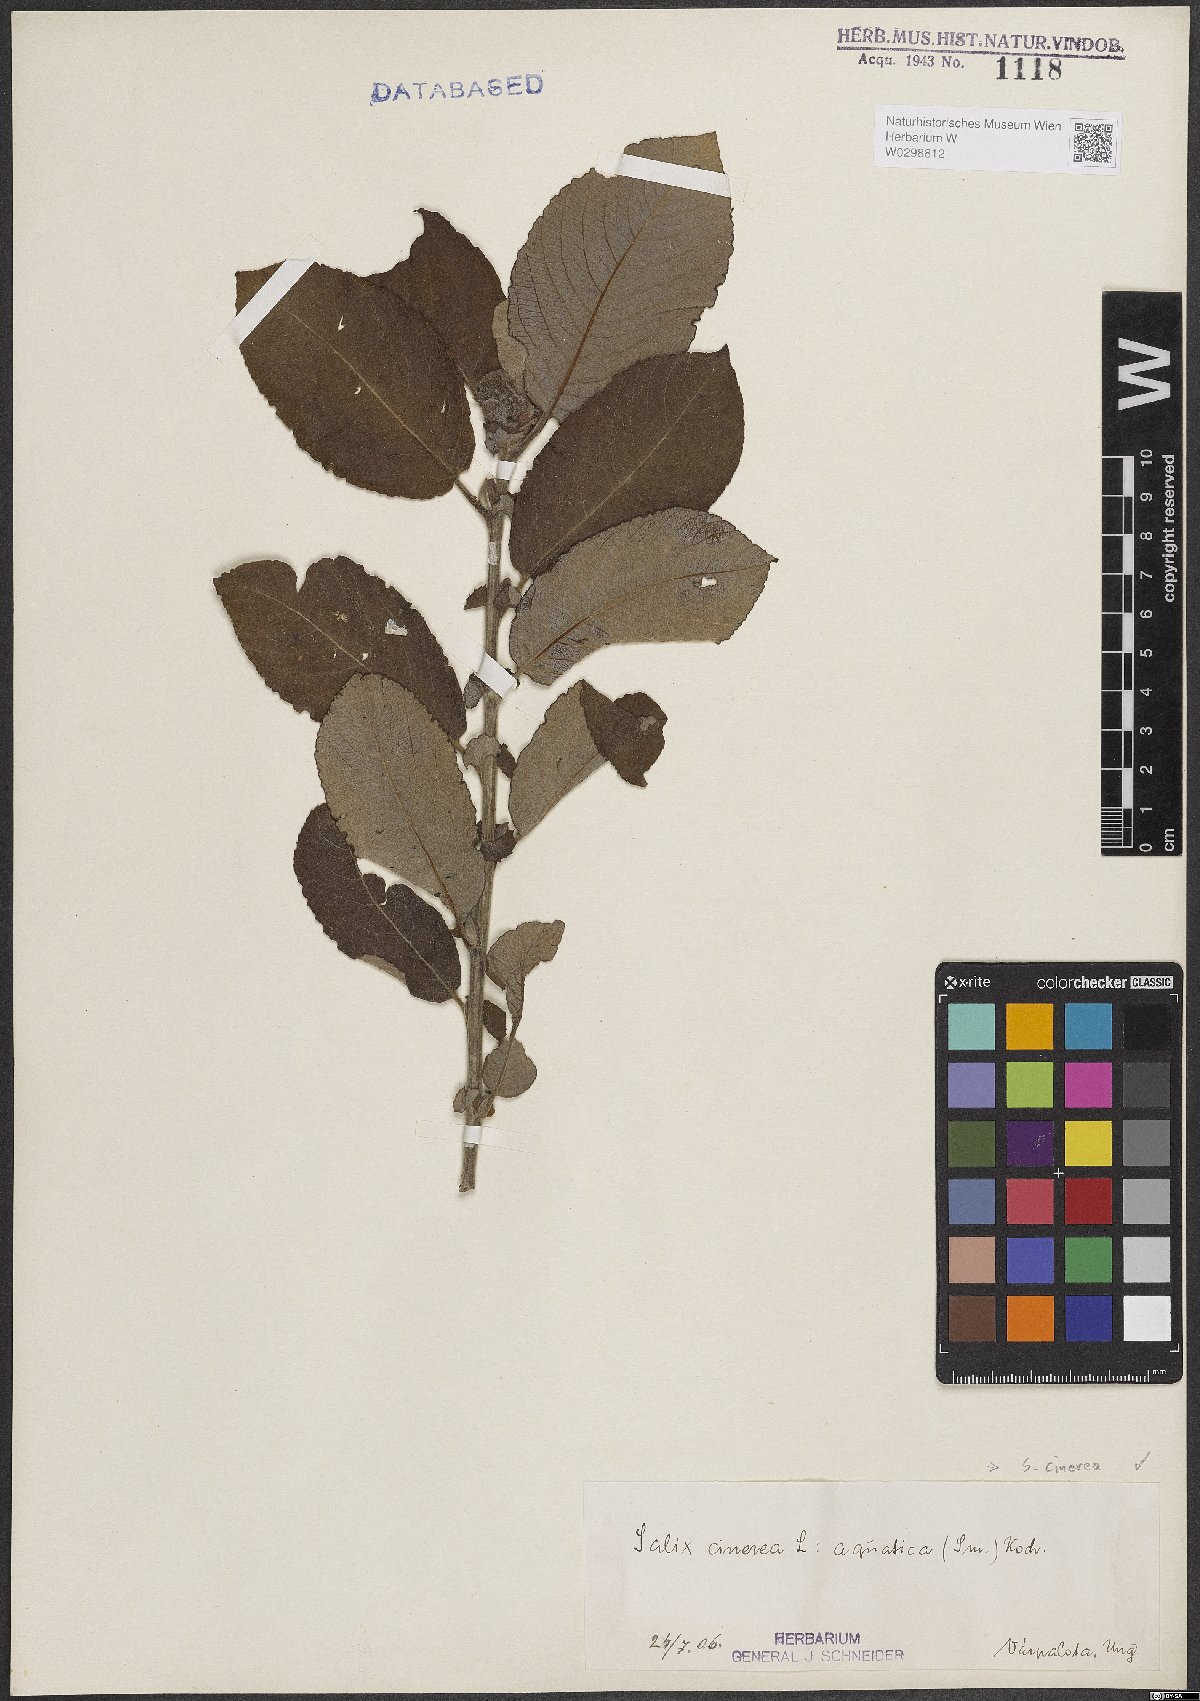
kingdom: Plantae
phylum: Tracheophyta
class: Magnoliopsida
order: Malpighiales
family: Salicaceae
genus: Salix
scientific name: Salix cinerea
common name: Common sallow
